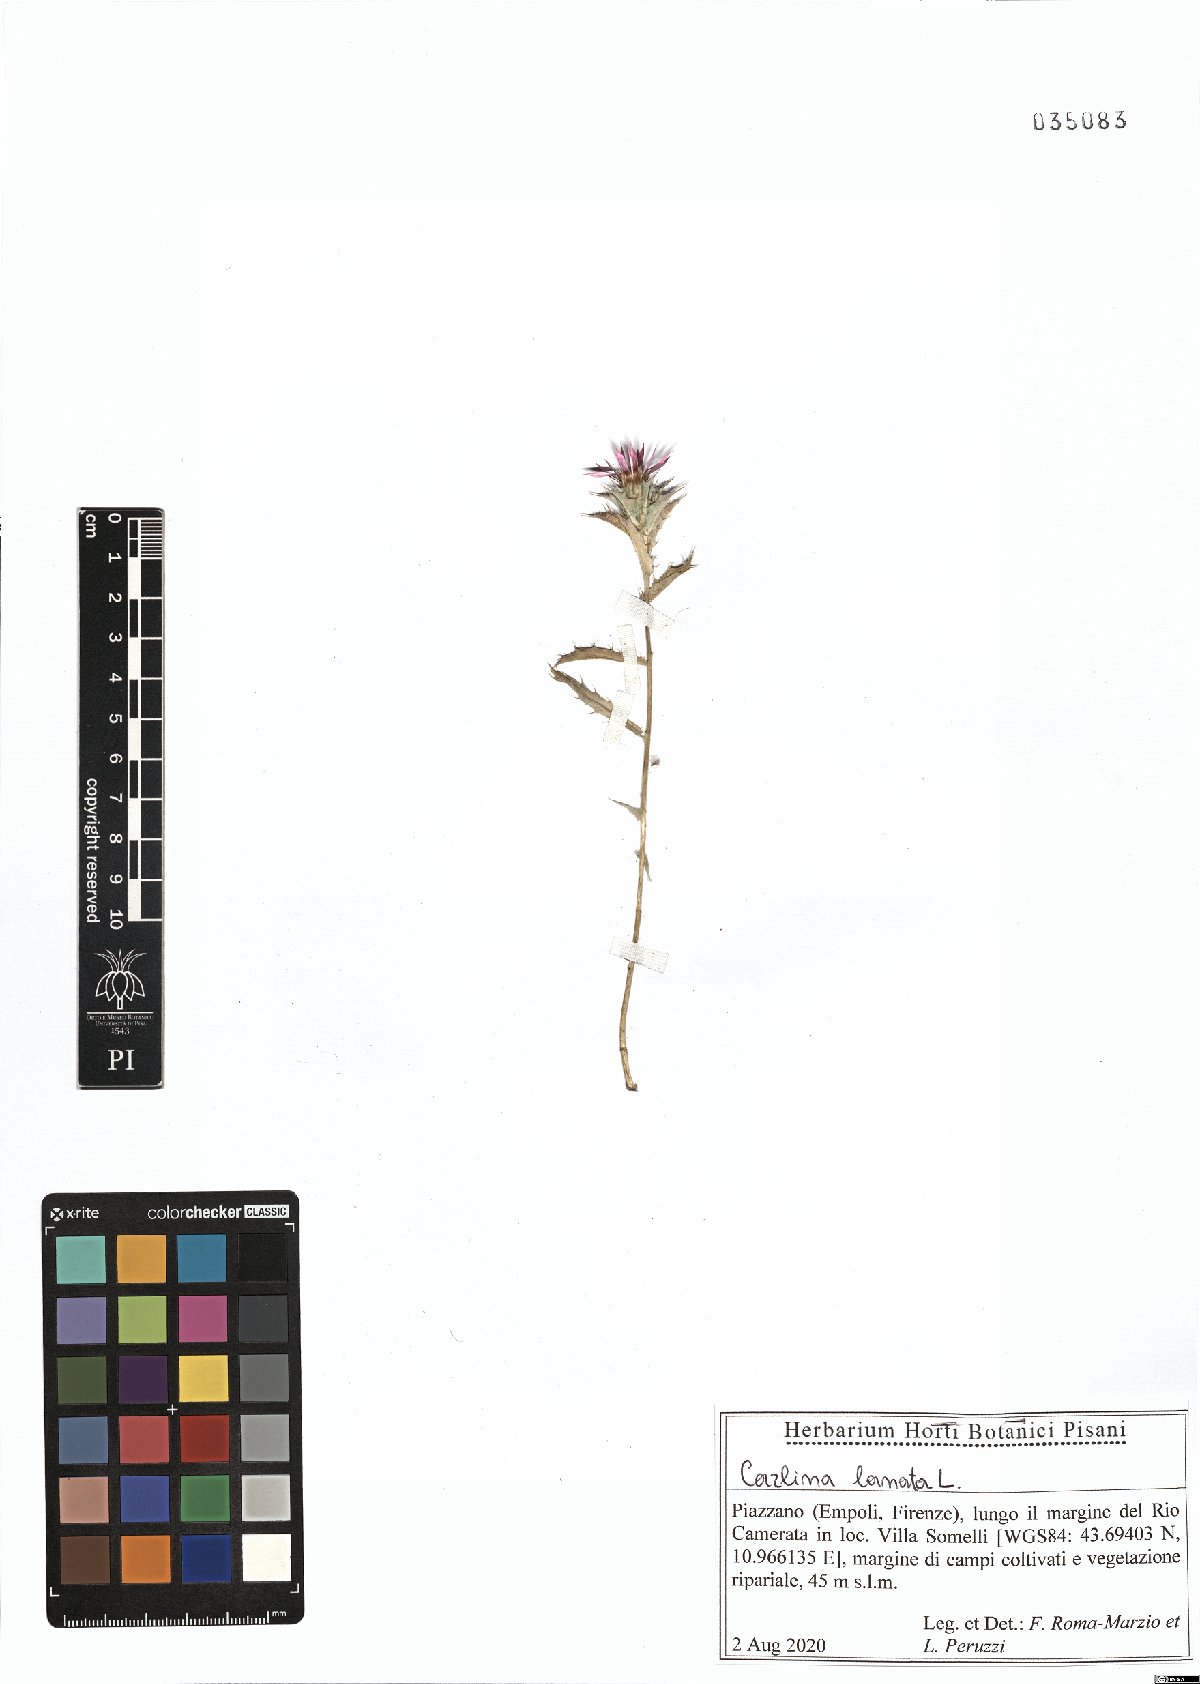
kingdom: Plantae
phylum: Tracheophyta
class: Magnoliopsida
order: Asterales
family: Asteraceae
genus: Carlina
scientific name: Carlina lanata
